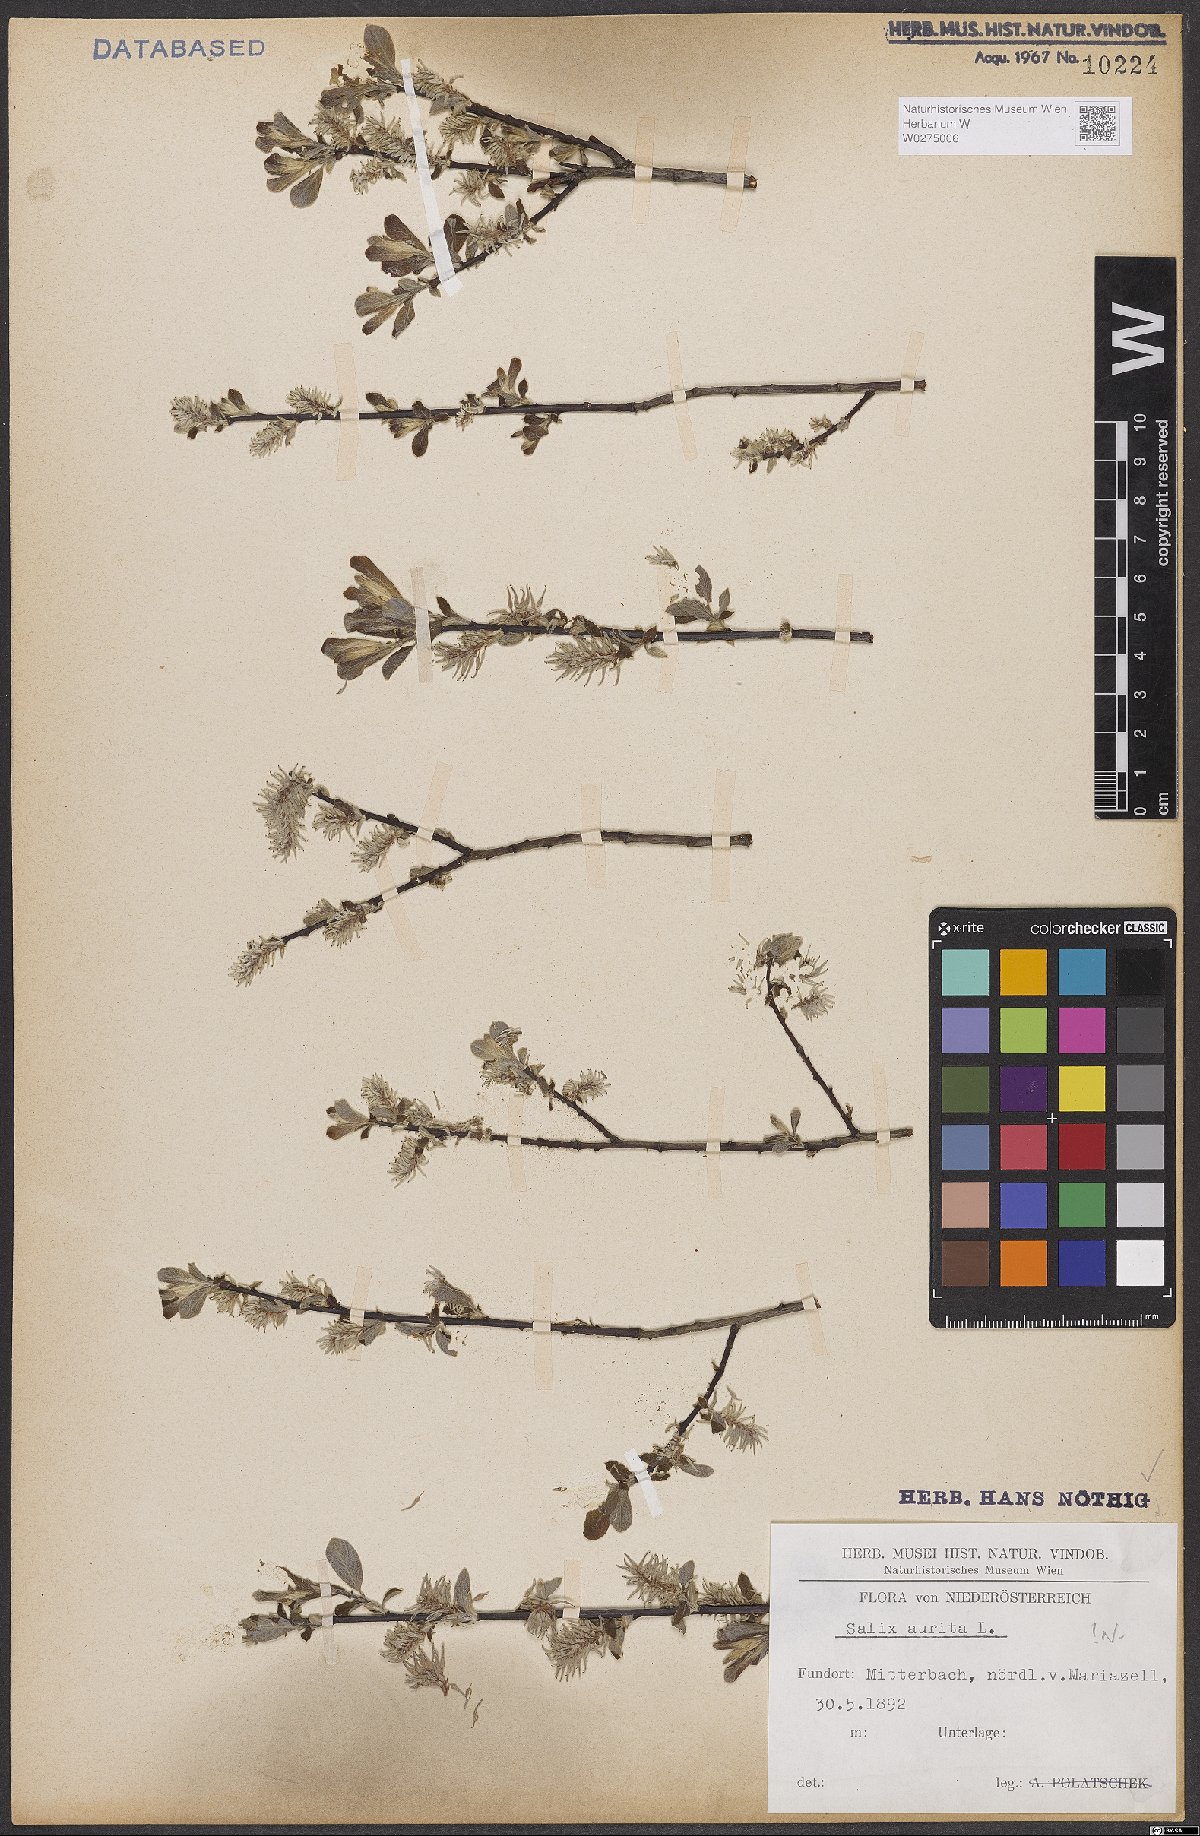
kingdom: Plantae
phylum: Tracheophyta
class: Magnoliopsida
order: Malpighiales
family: Salicaceae
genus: Salix
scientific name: Salix aurita
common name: Eared willow
